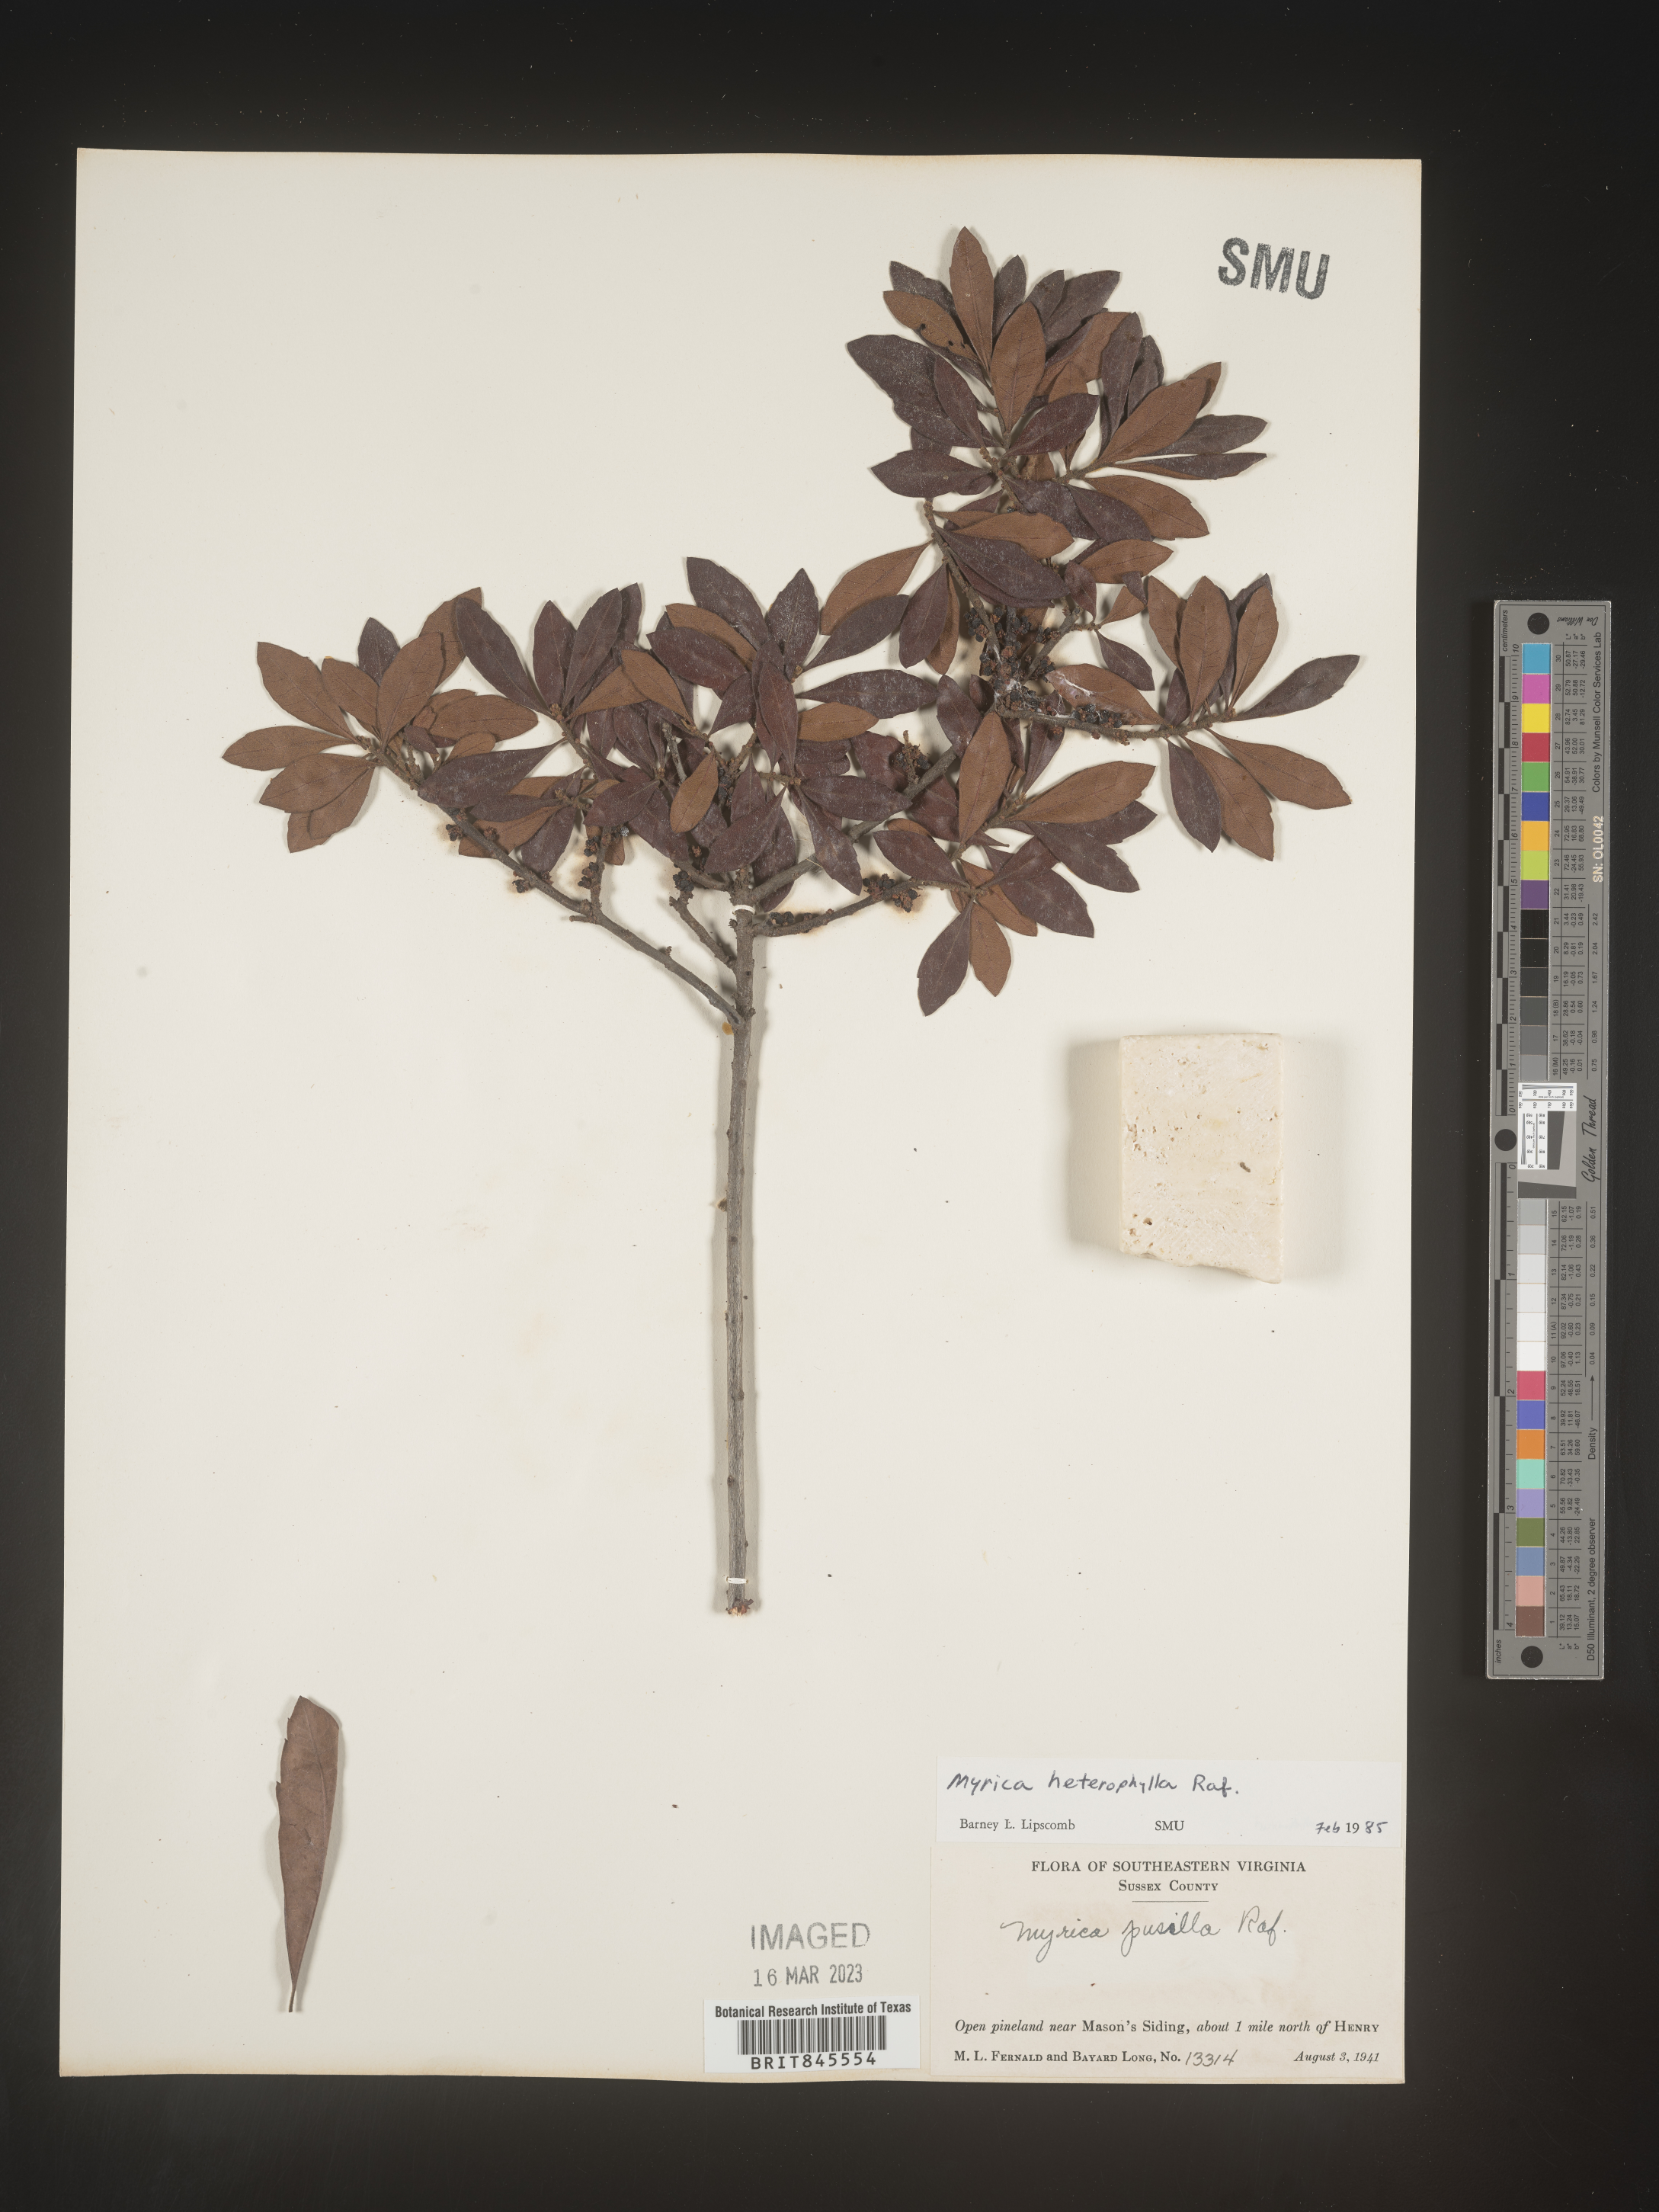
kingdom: Plantae
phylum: Tracheophyta
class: Magnoliopsida
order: Fagales
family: Myricaceae
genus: Morella
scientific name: Morella caroliniensis
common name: Evergreen bayberry
